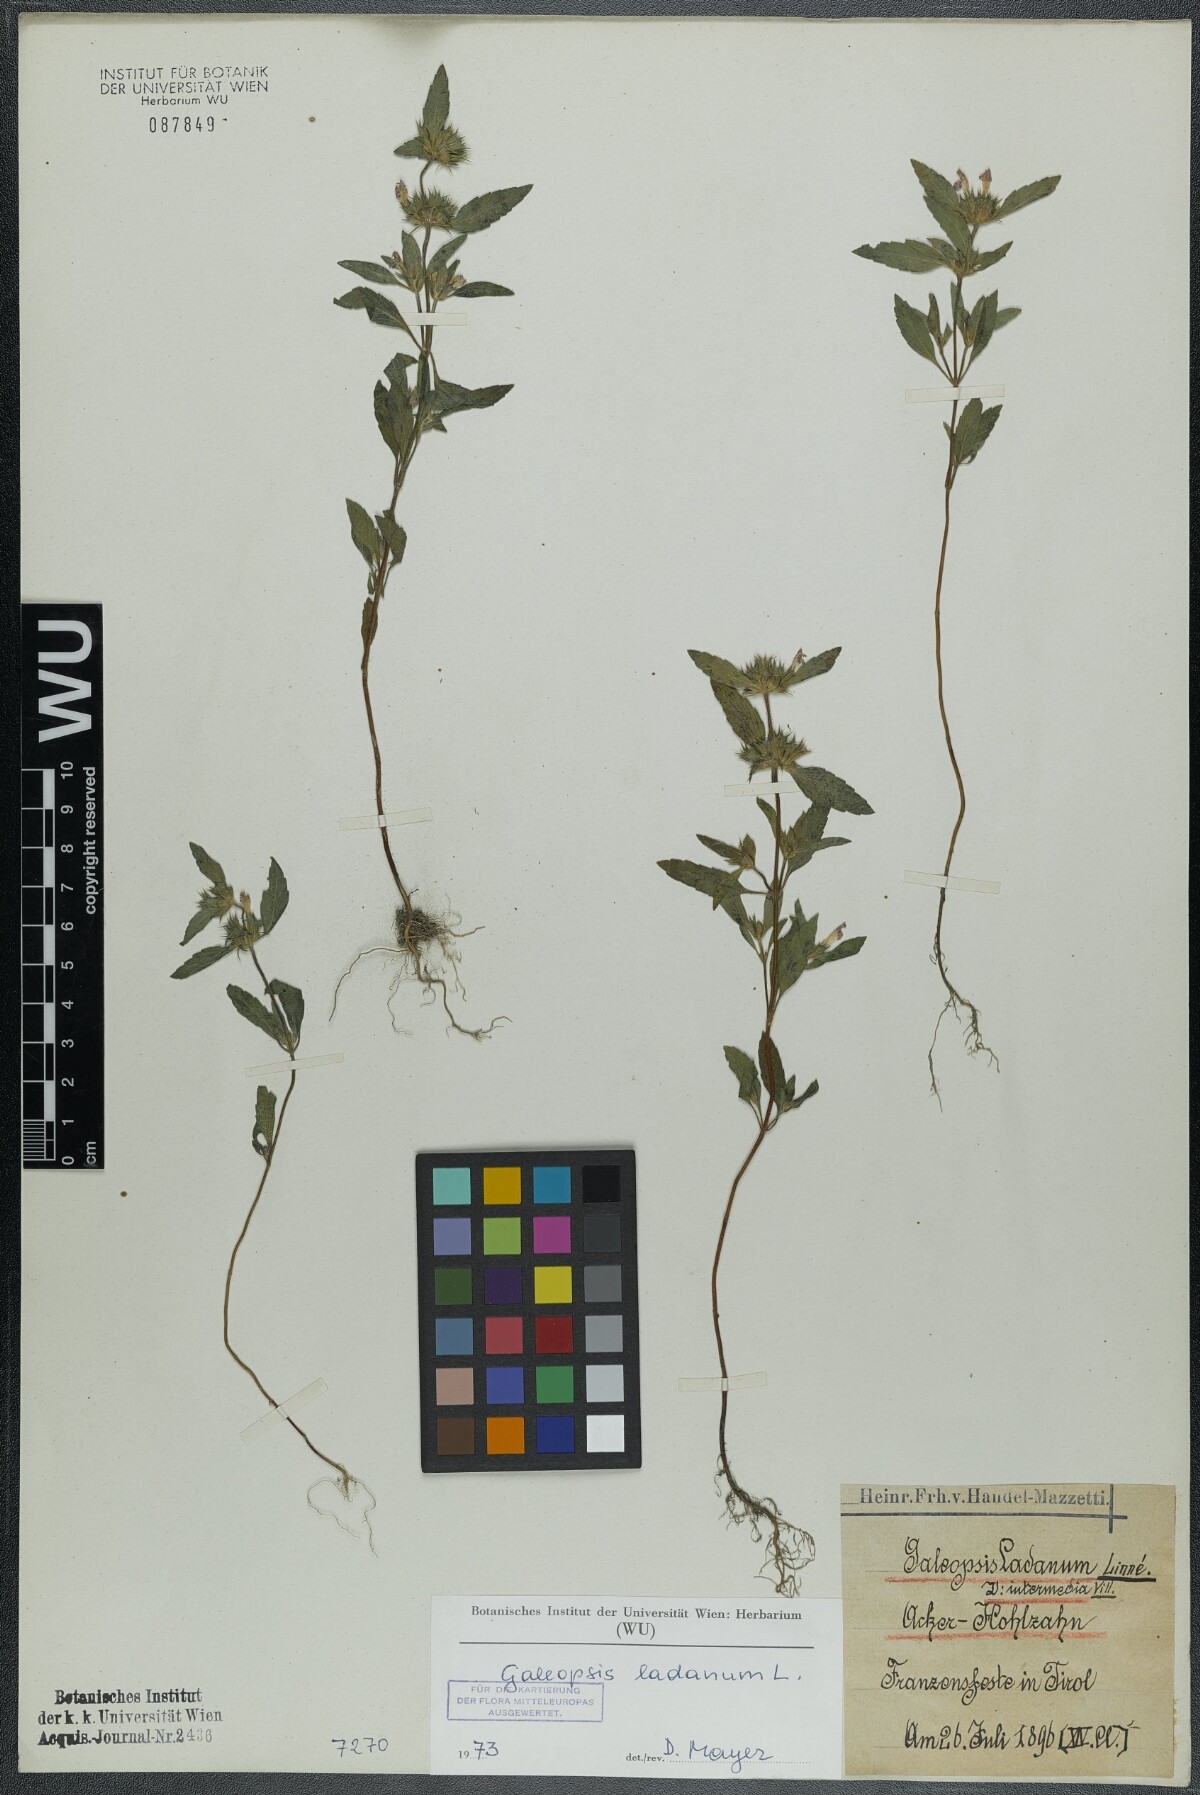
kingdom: Plantae
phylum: Tracheophyta
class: Magnoliopsida
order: Lamiales
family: Lamiaceae
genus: Galeopsis
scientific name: Galeopsis ladanum
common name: Broad-leaved hemp-nettle
